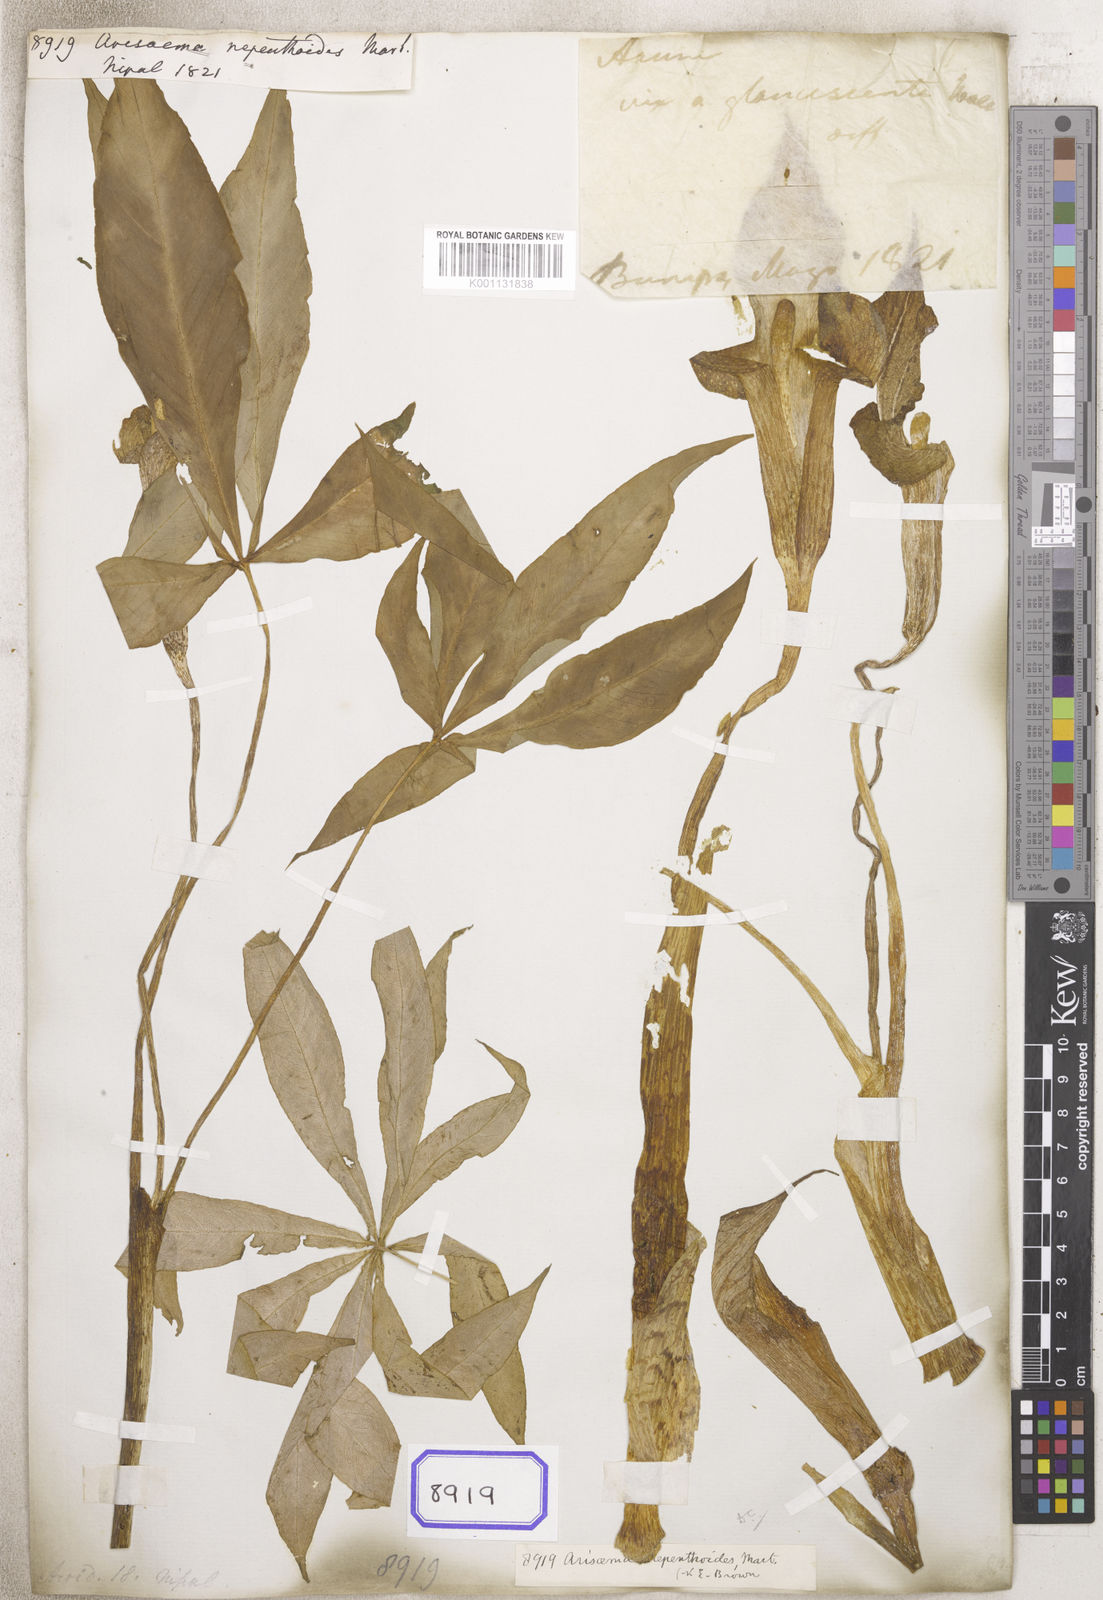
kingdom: Plantae
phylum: Tracheophyta
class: Liliopsida
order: Alismatales
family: Araceae
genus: Arisaema
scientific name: Arisaema nepenthoides
